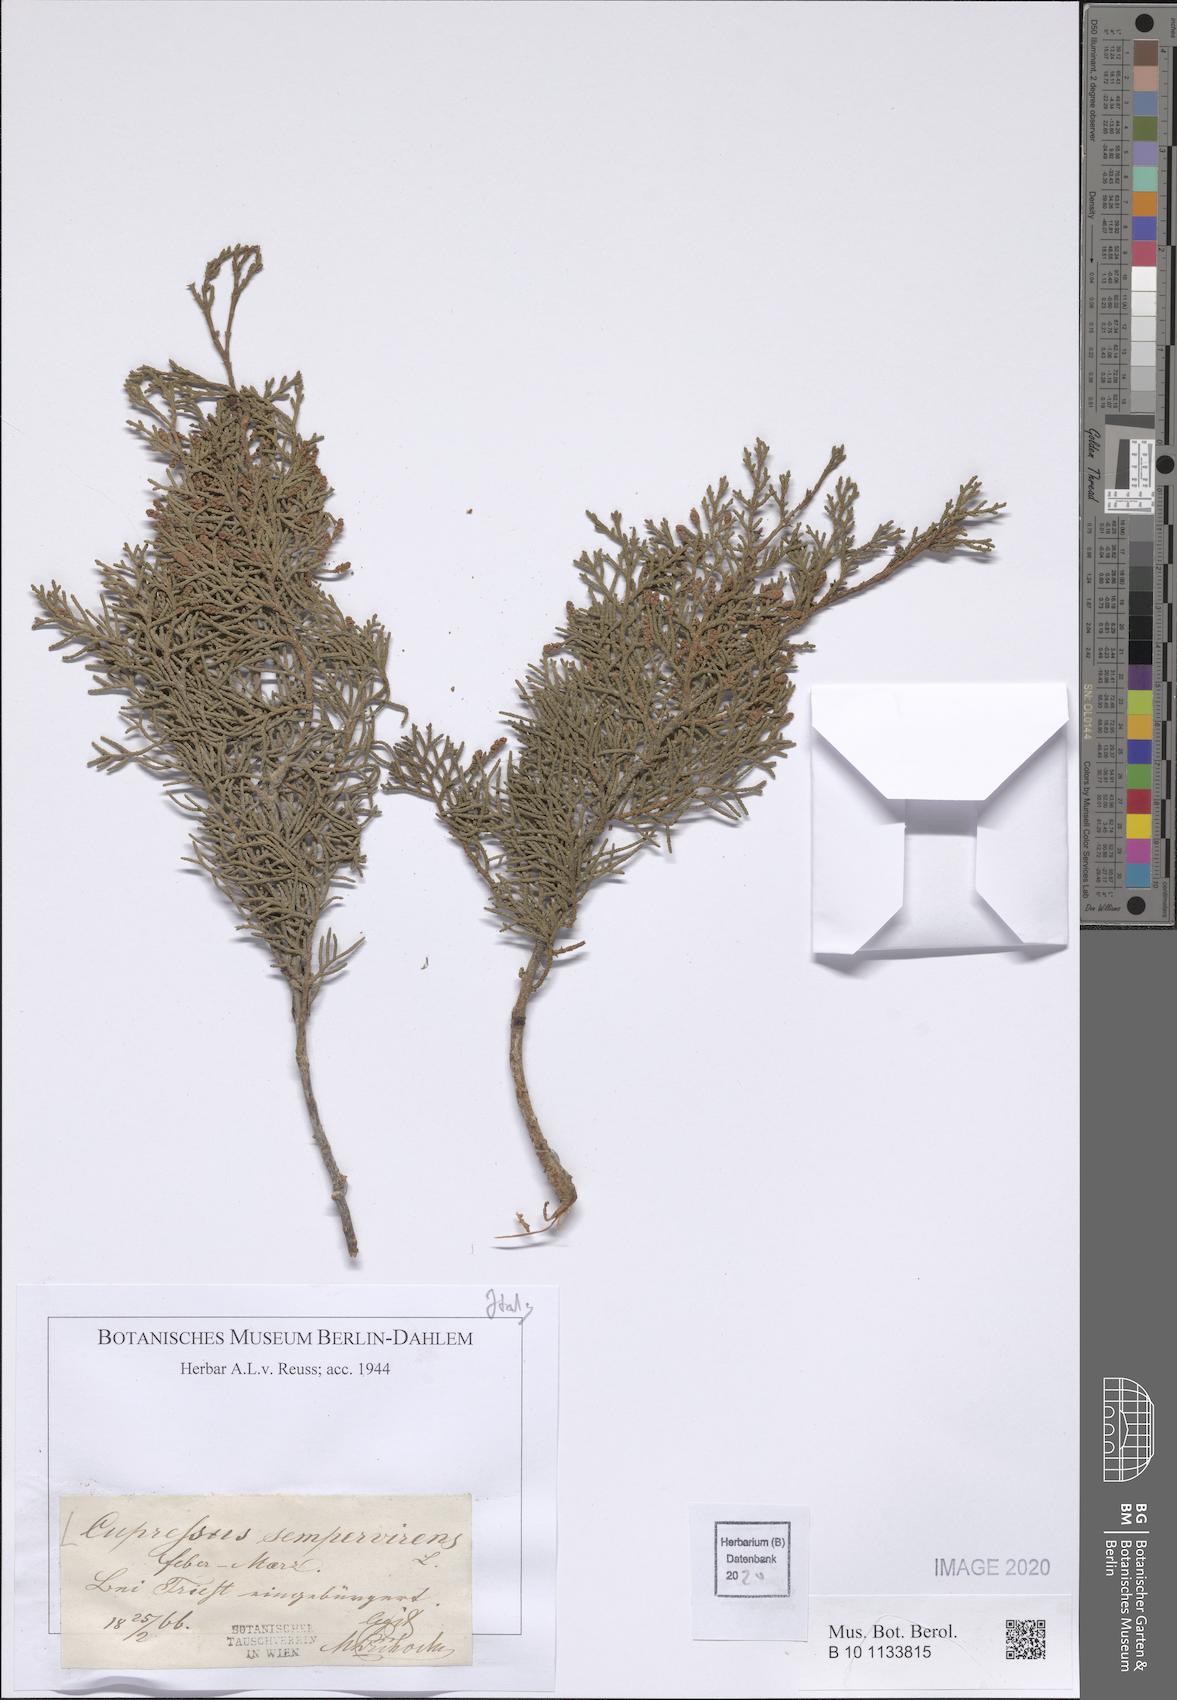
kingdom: Plantae
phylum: Tracheophyta
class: Pinopsida
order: Pinales
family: Cupressaceae
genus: Cupressus
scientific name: Cupressus sempervirens
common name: Italian cypress
